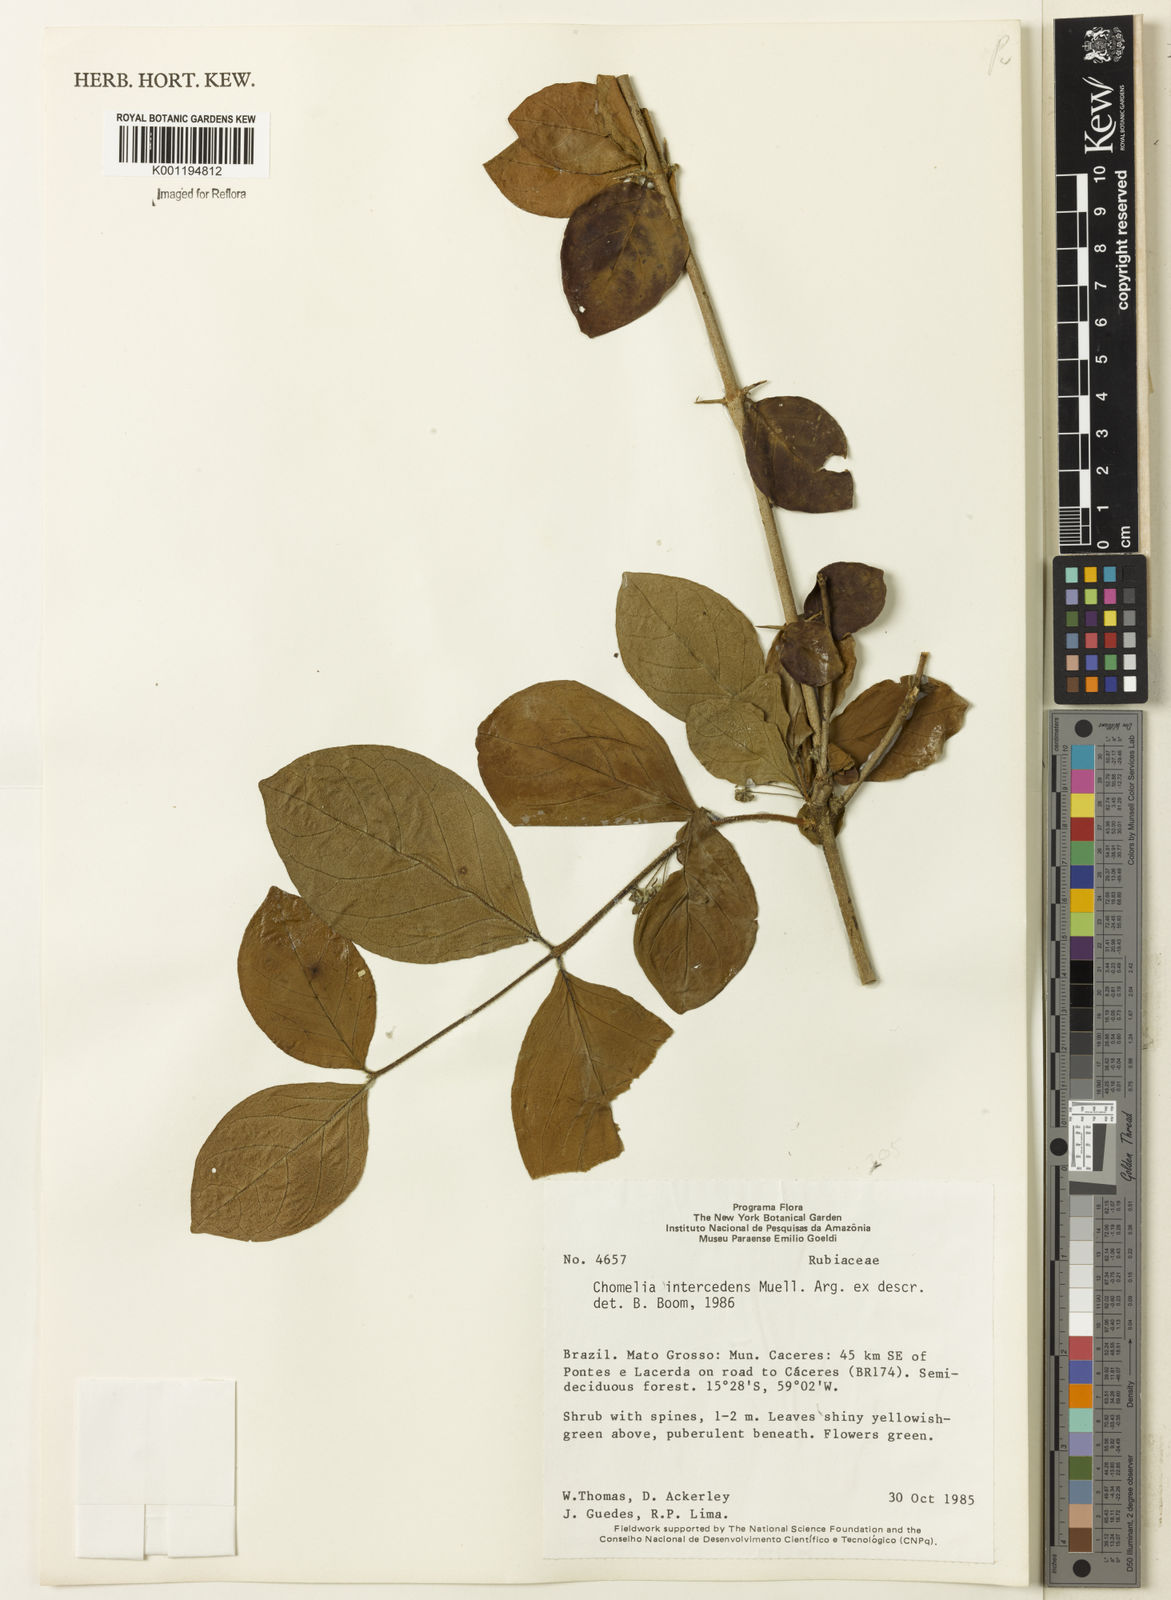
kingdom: Plantae
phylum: Tracheophyta
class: Magnoliopsida
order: Gentianales
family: Rubiaceae
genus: Chomelia
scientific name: Chomelia
